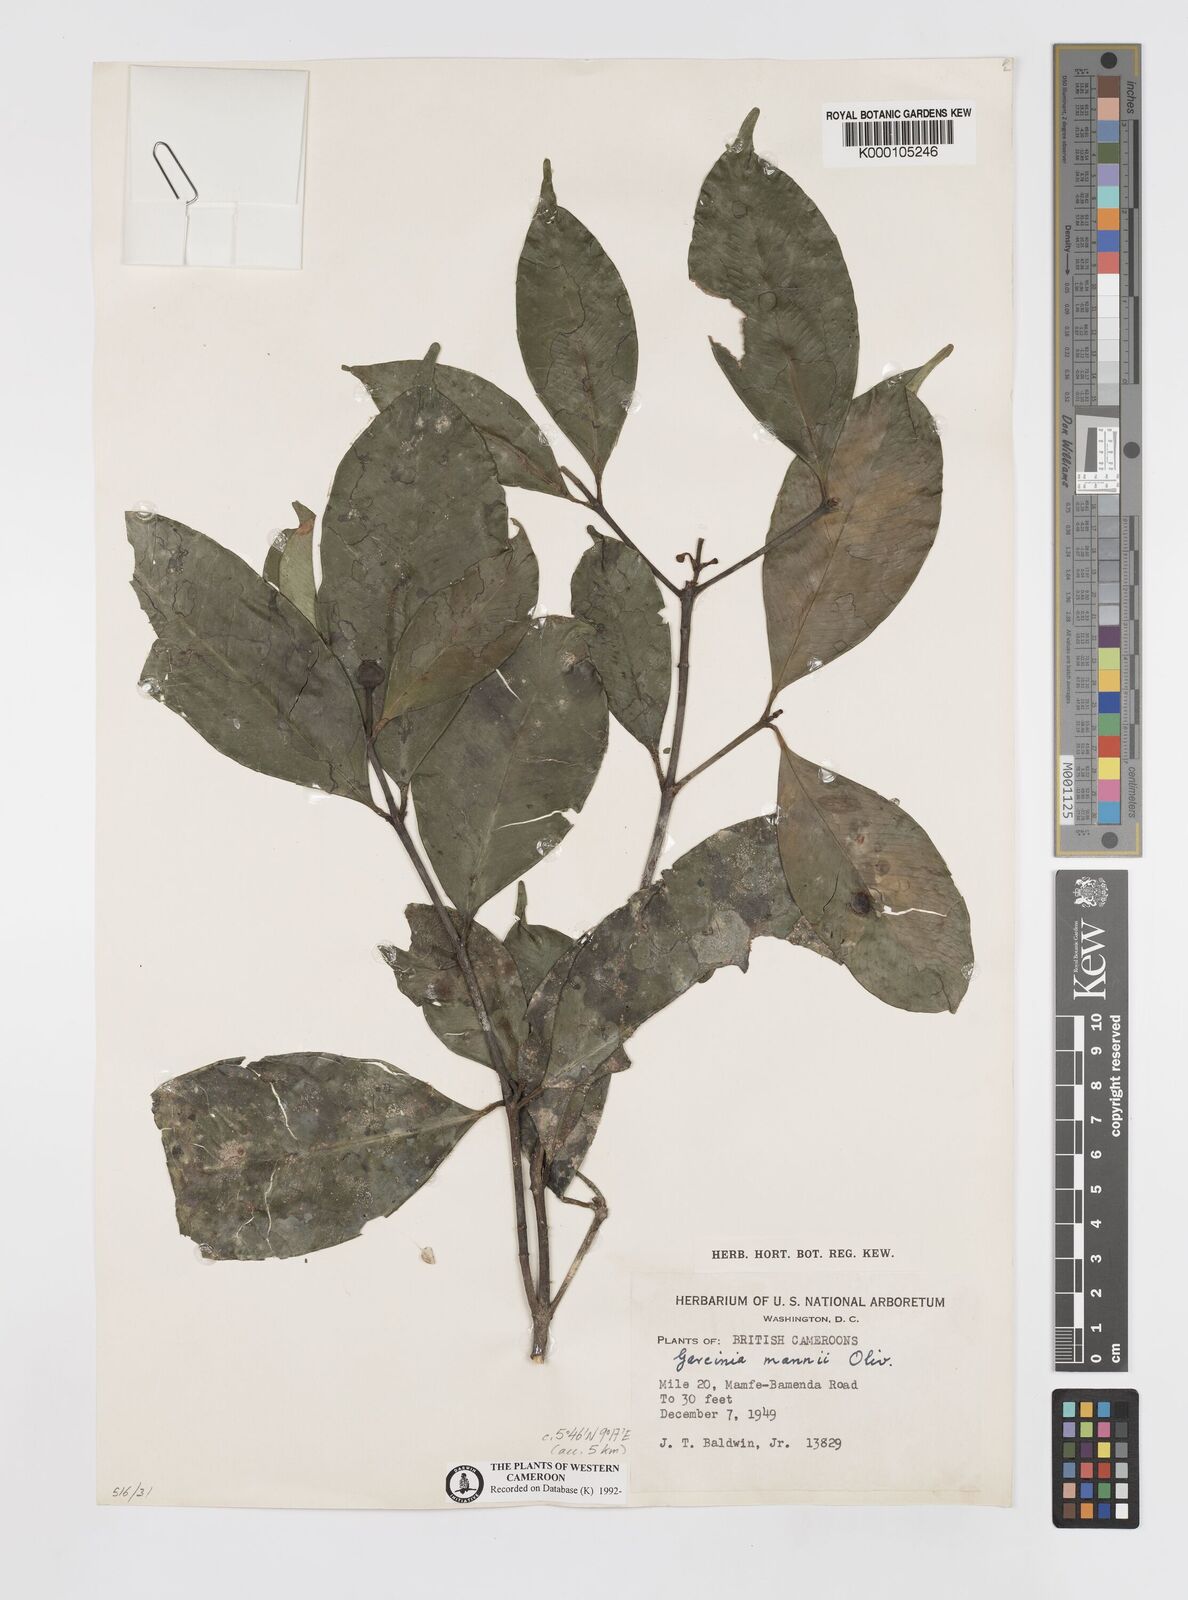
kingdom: Plantae
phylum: Tracheophyta
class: Magnoliopsida
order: Malpighiales
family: Clusiaceae
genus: Garcinia
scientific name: Garcinia mannii
